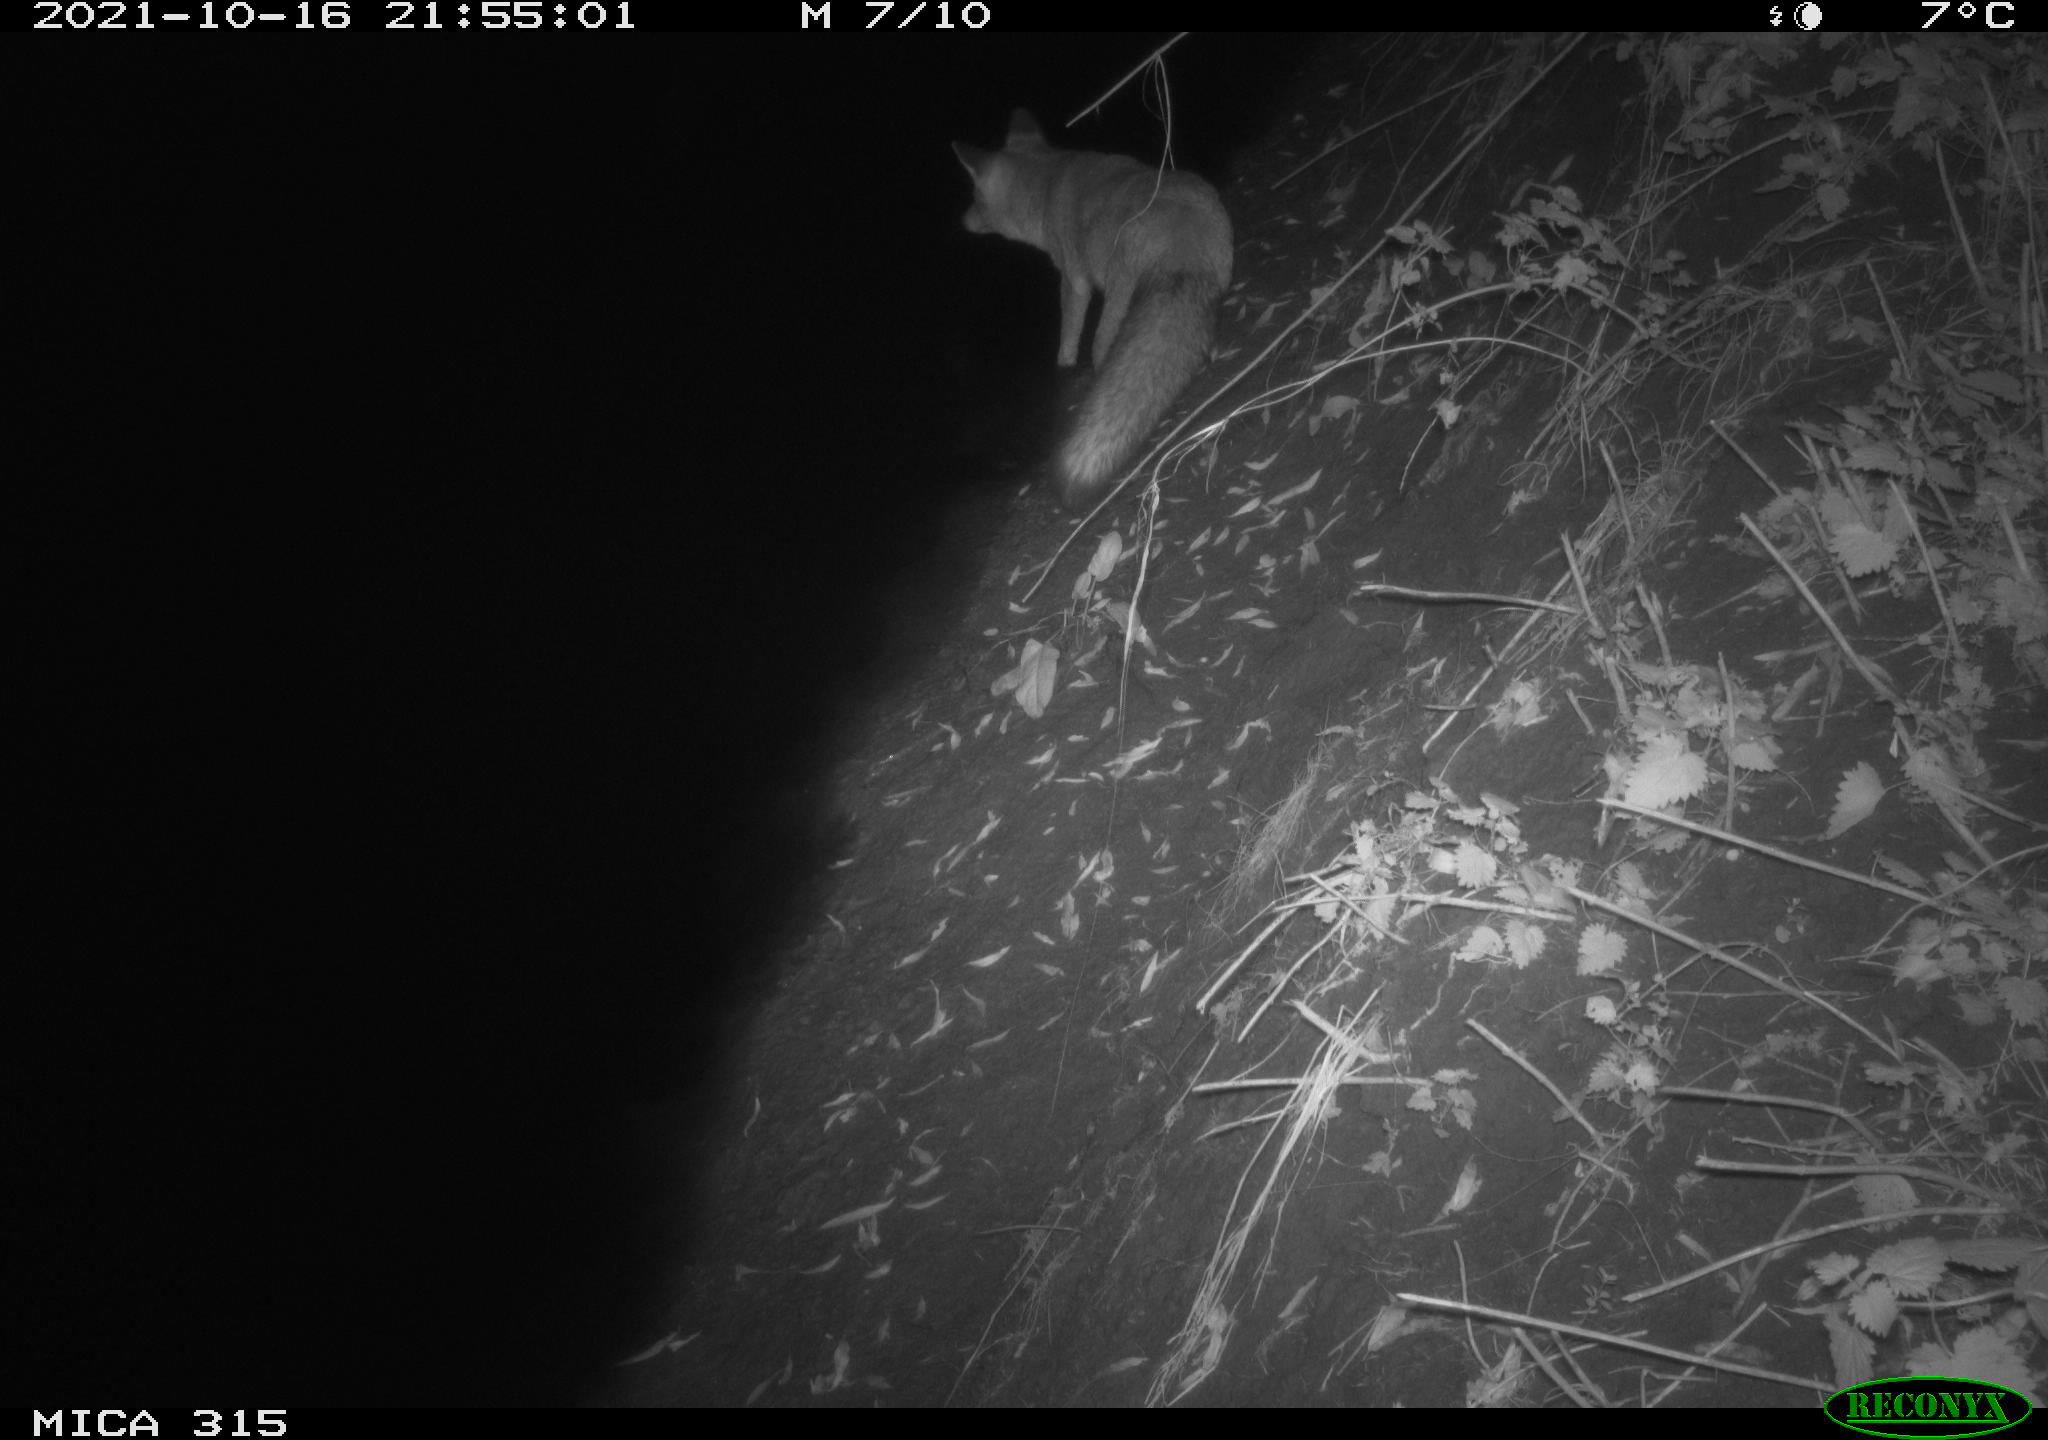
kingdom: Animalia
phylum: Chordata
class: Mammalia
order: Carnivora
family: Canidae
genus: Vulpes
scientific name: Vulpes vulpes
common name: Red fox
